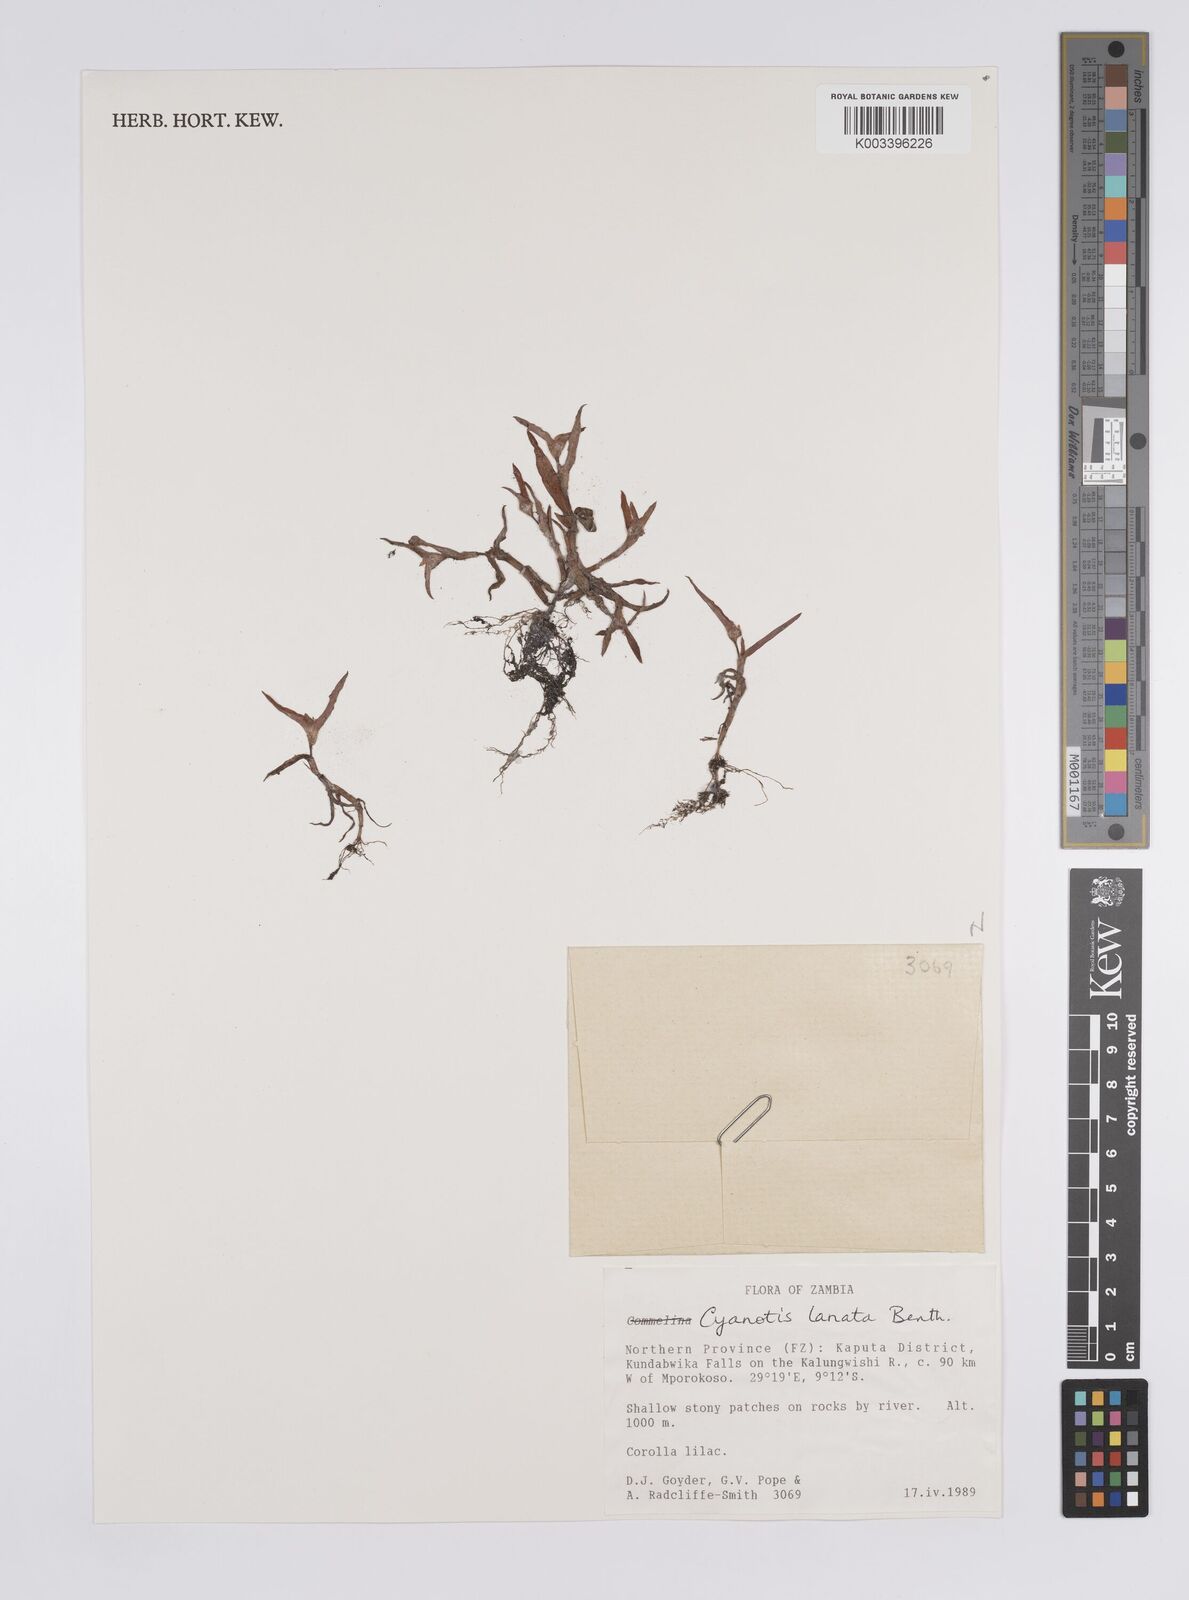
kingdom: Plantae
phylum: Tracheophyta
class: Liliopsida
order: Commelinales
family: Commelinaceae
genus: Cyanotis
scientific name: Cyanotis lanata
